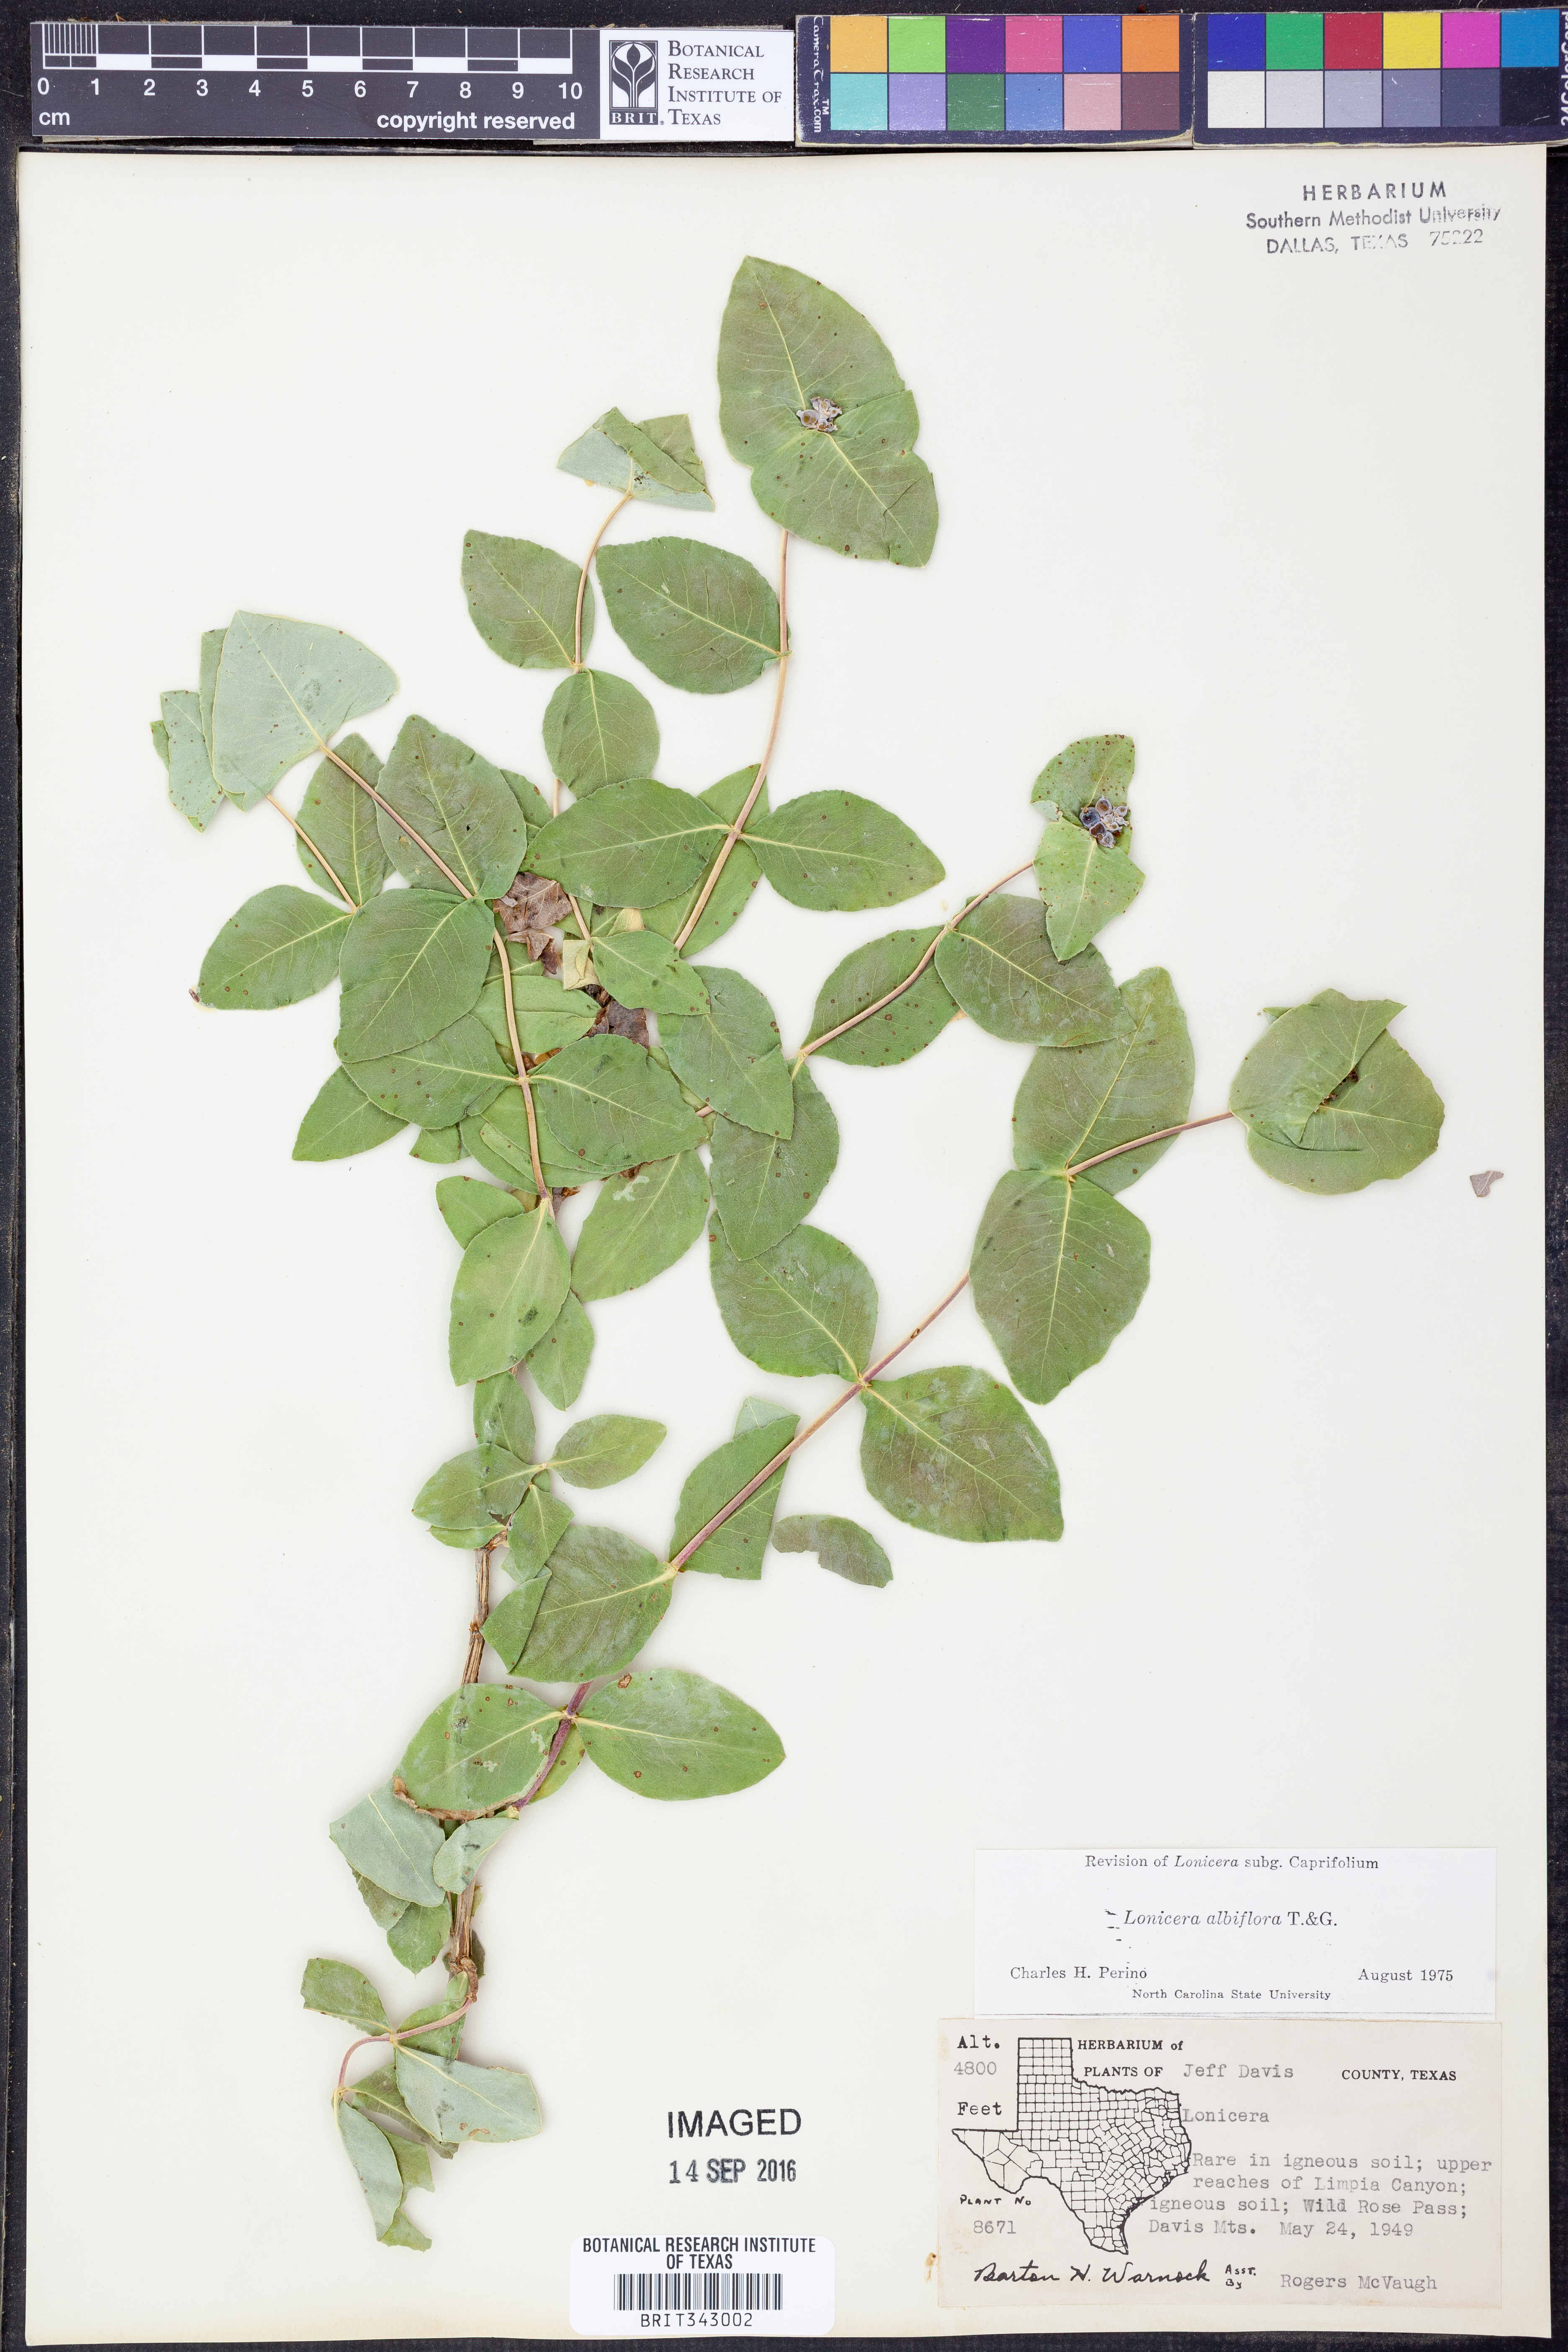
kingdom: Plantae
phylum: Tracheophyta
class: Magnoliopsida
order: Dipsacales
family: Caprifoliaceae
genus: Lonicera
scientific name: Lonicera albiflora
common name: White honeysuckle
